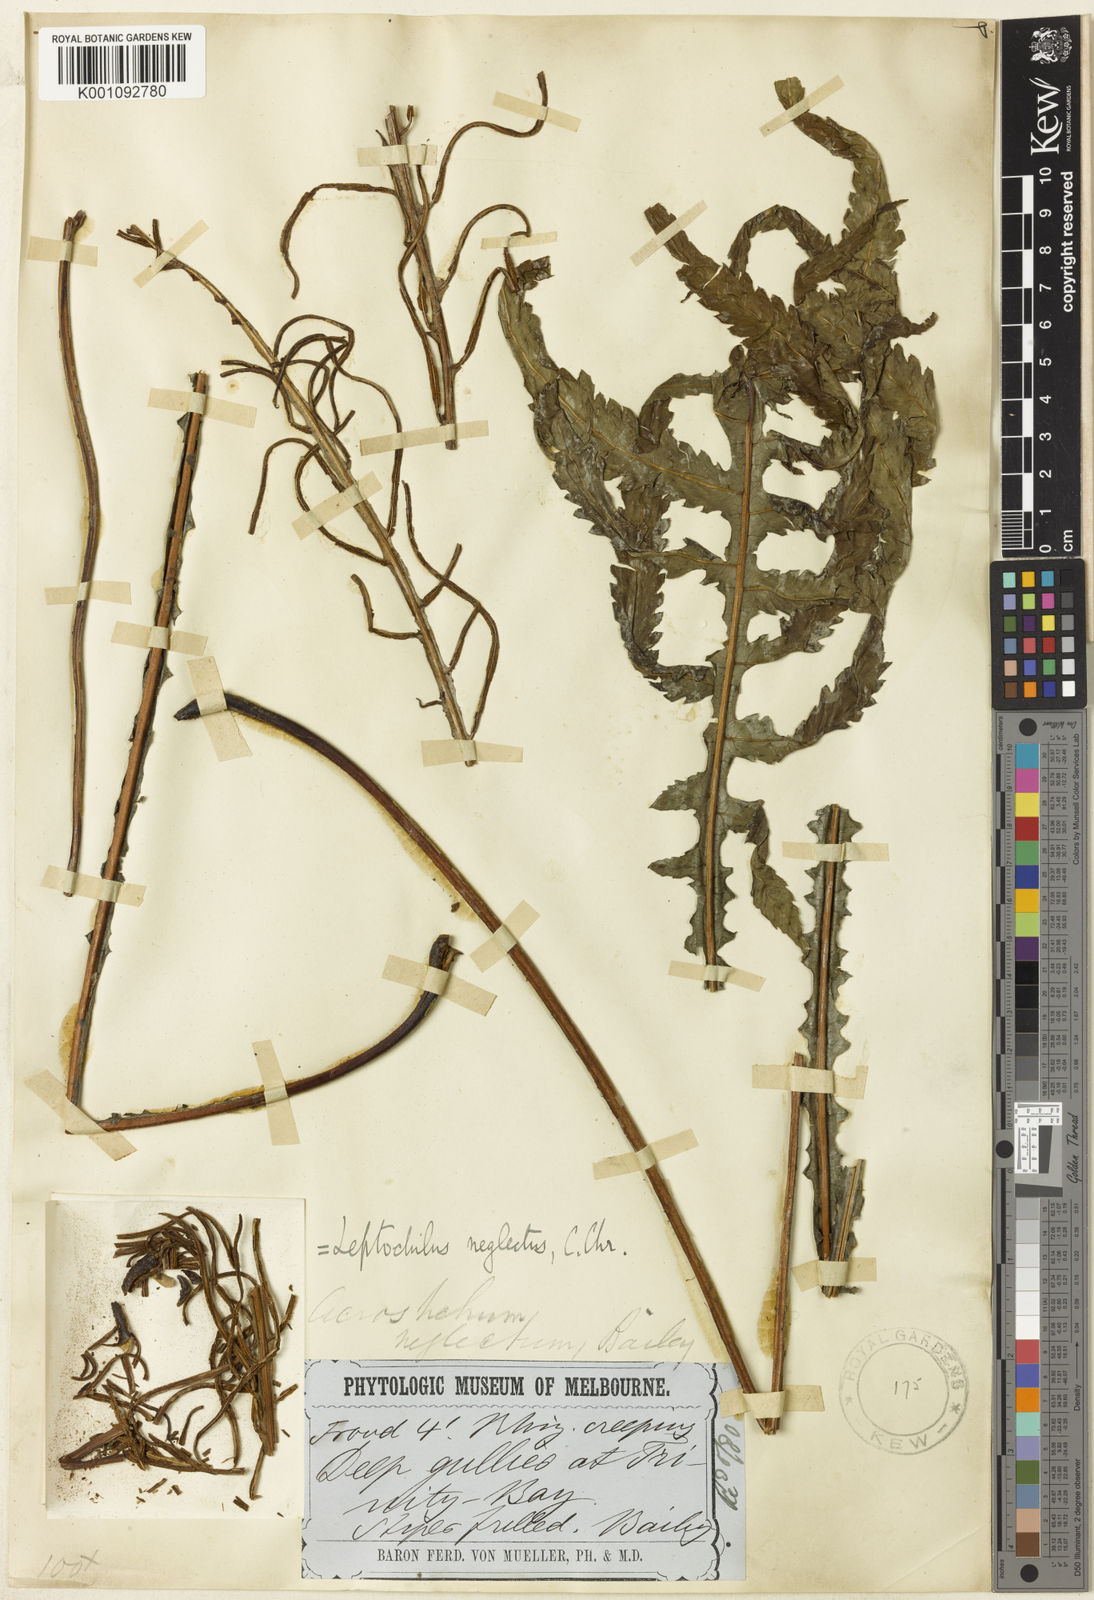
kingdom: Plantae
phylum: Tracheophyta
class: Polypodiopsida
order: Polypodiales
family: Blechnaceae
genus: Diploblechnum
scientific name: Diploblechnum neglectum
